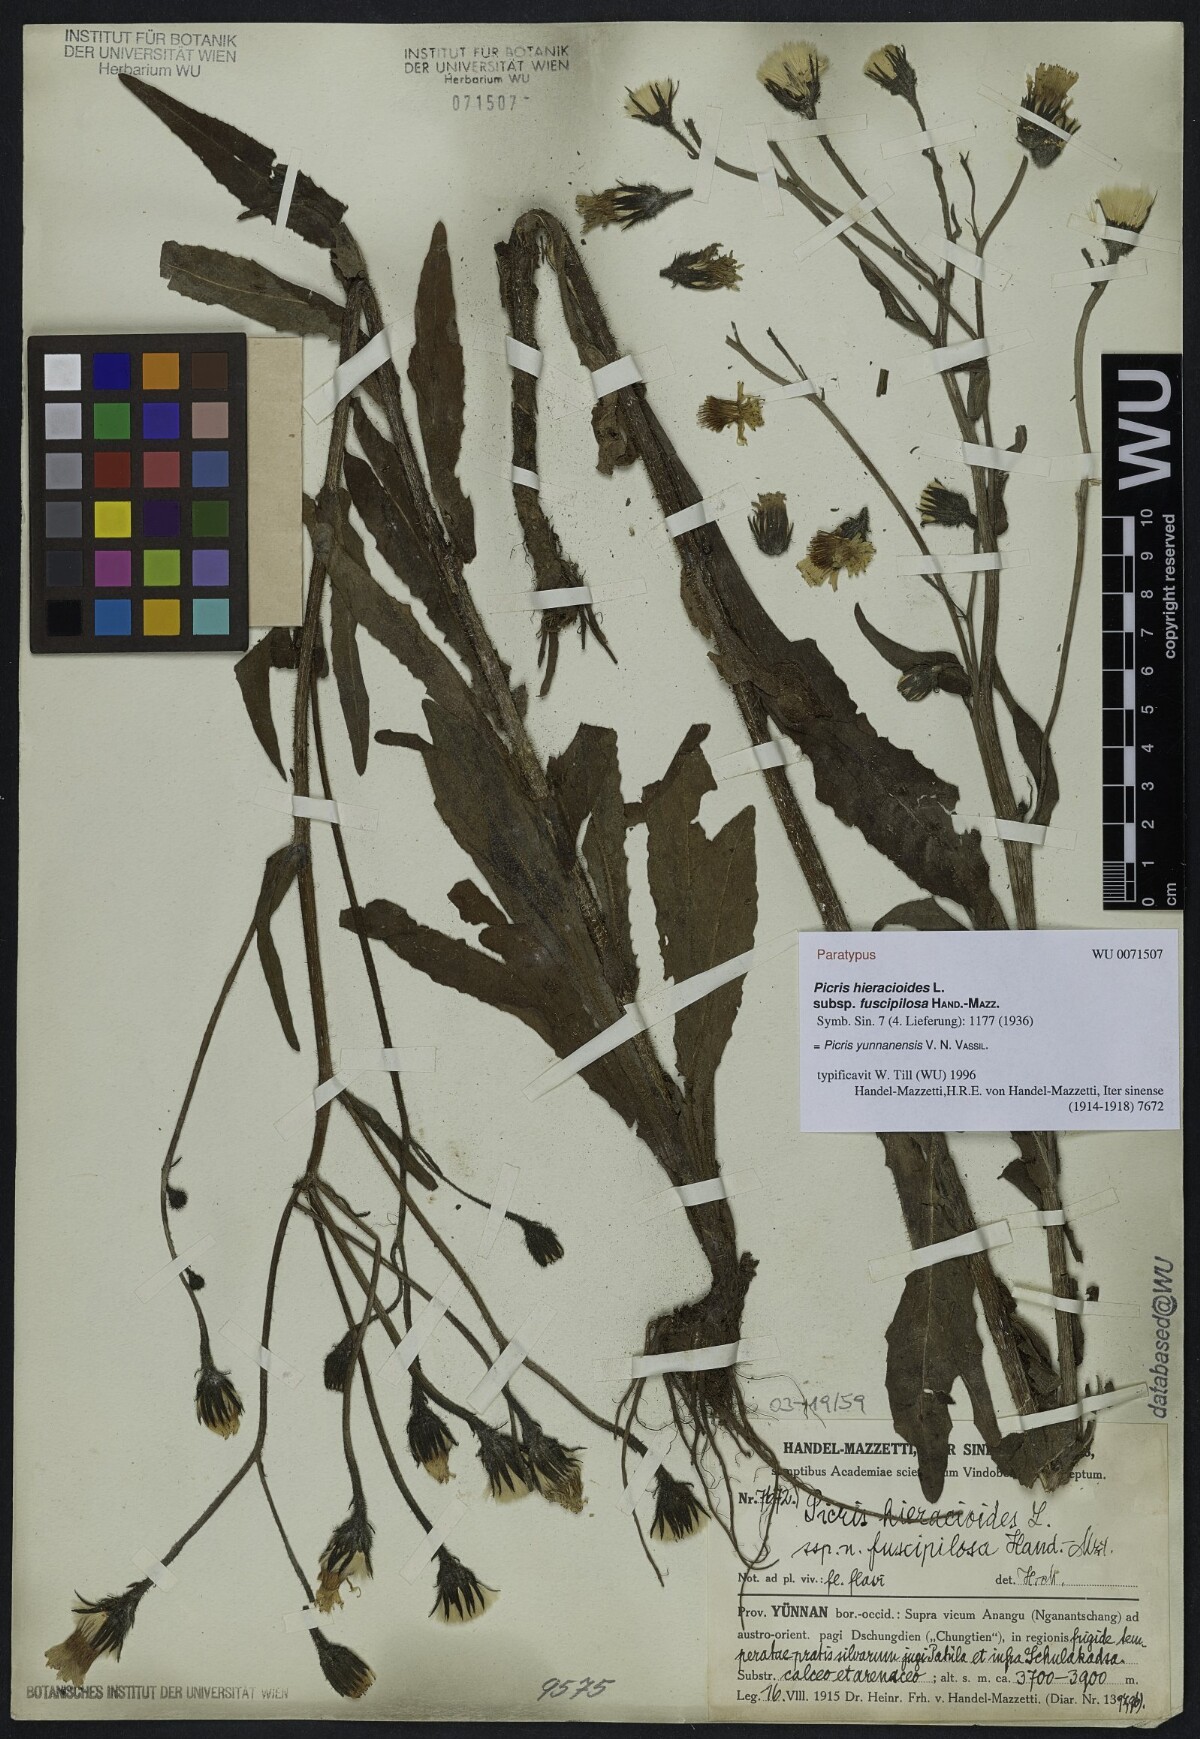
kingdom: Plantae
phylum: Tracheophyta
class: Magnoliopsida
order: Asterales
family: Asteraceae
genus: Picris
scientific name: Picris junnanensis
